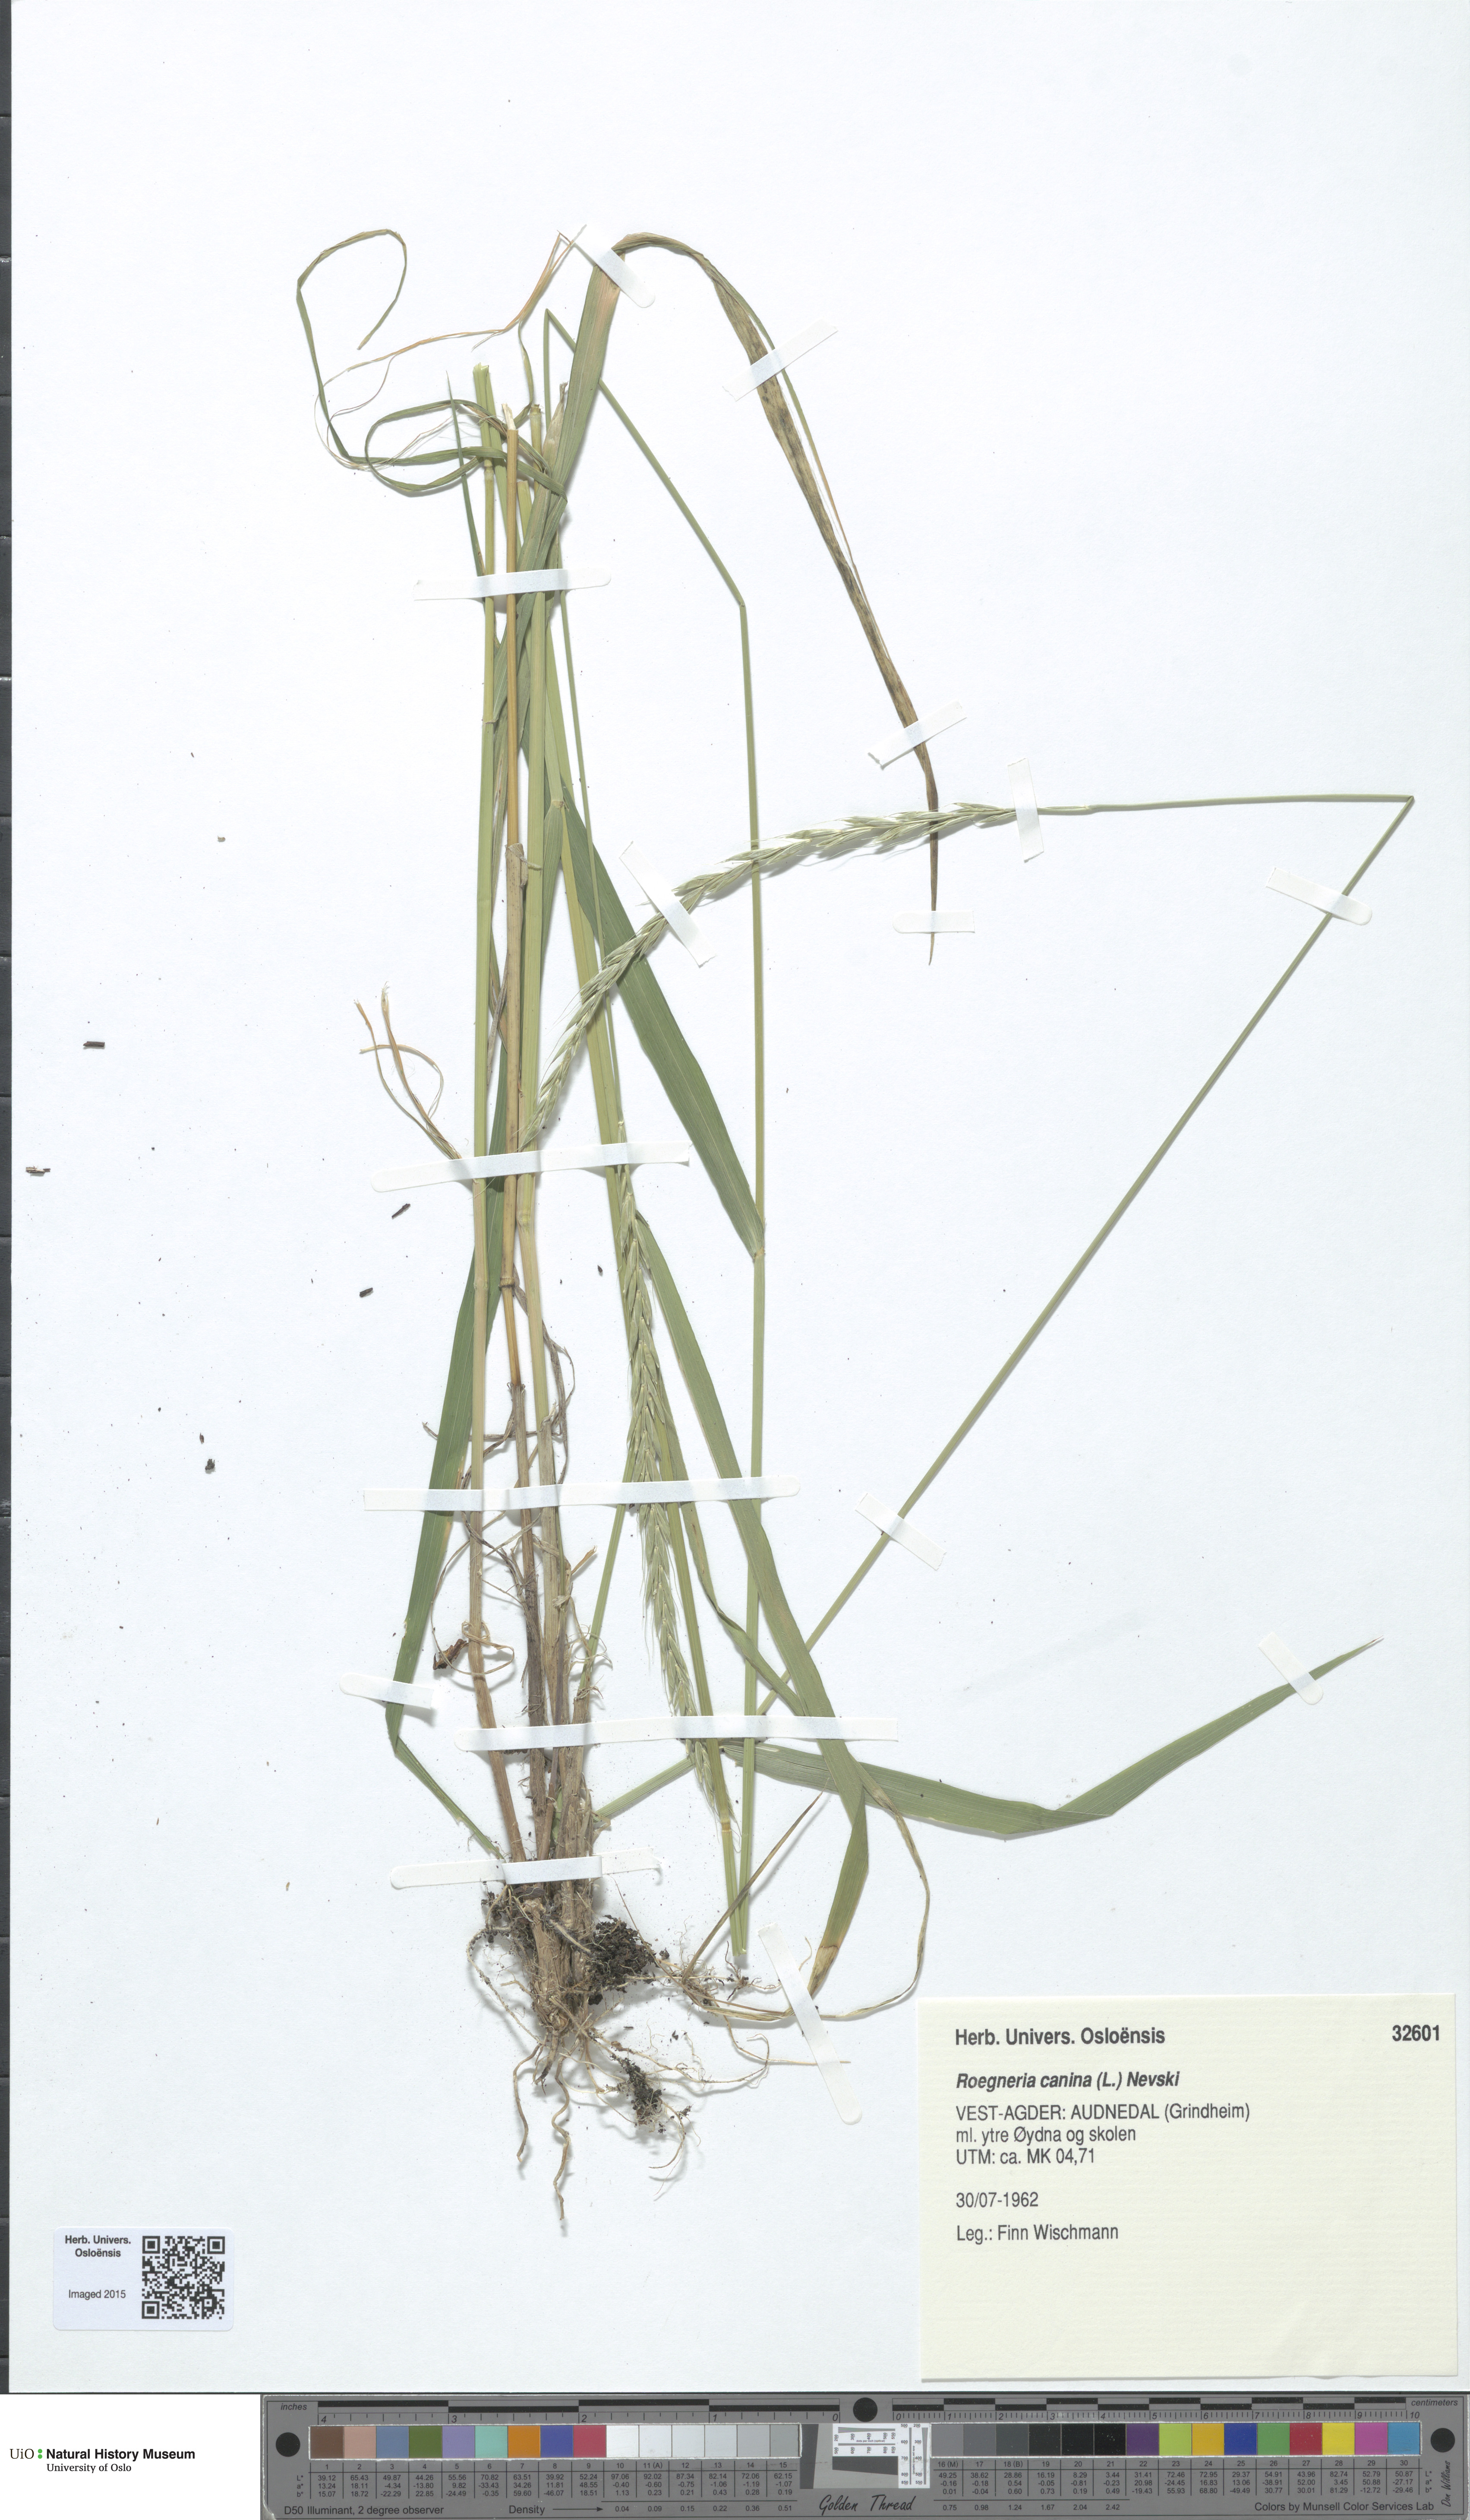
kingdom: Plantae
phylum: Tracheophyta
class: Liliopsida
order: Poales
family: Poaceae
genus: Elymus
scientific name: Elymus caninus
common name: Bearded couch
